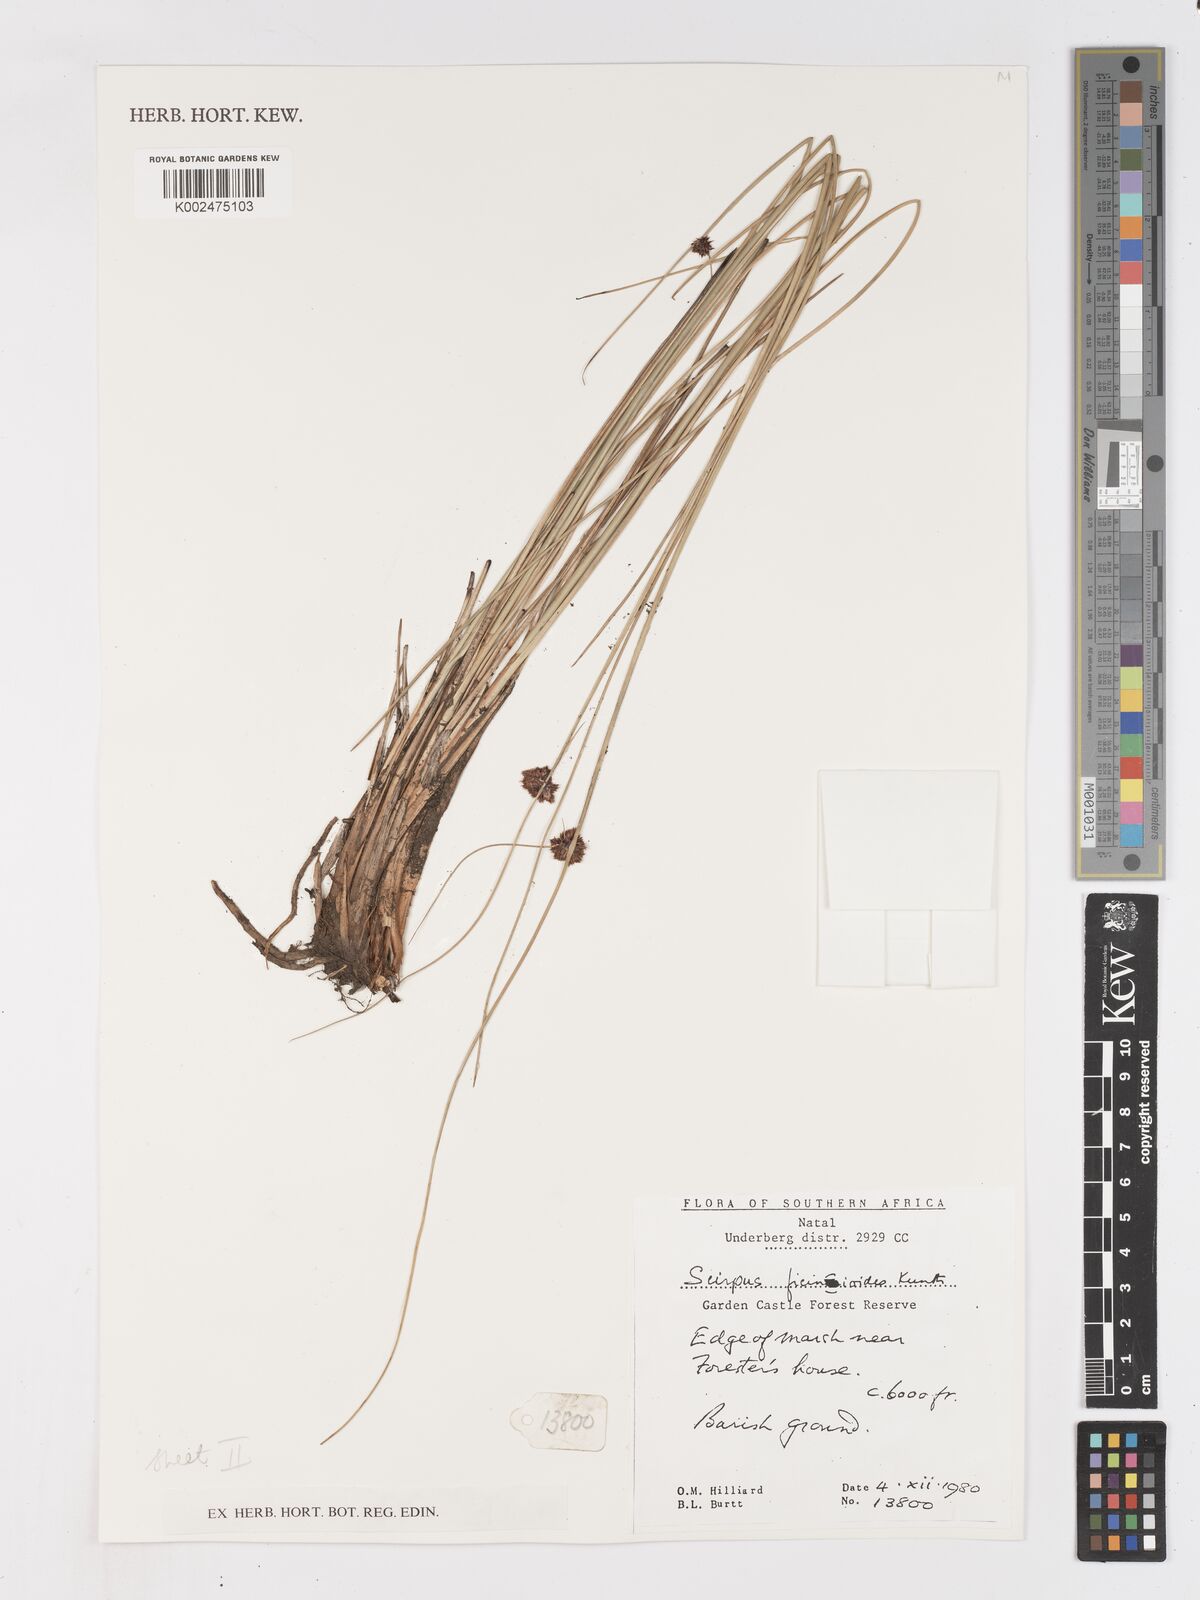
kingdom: Plantae
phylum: Tracheophyta
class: Liliopsida
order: Poales
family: Cyperaceae
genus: Ficinia
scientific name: Ficinia filiformis
